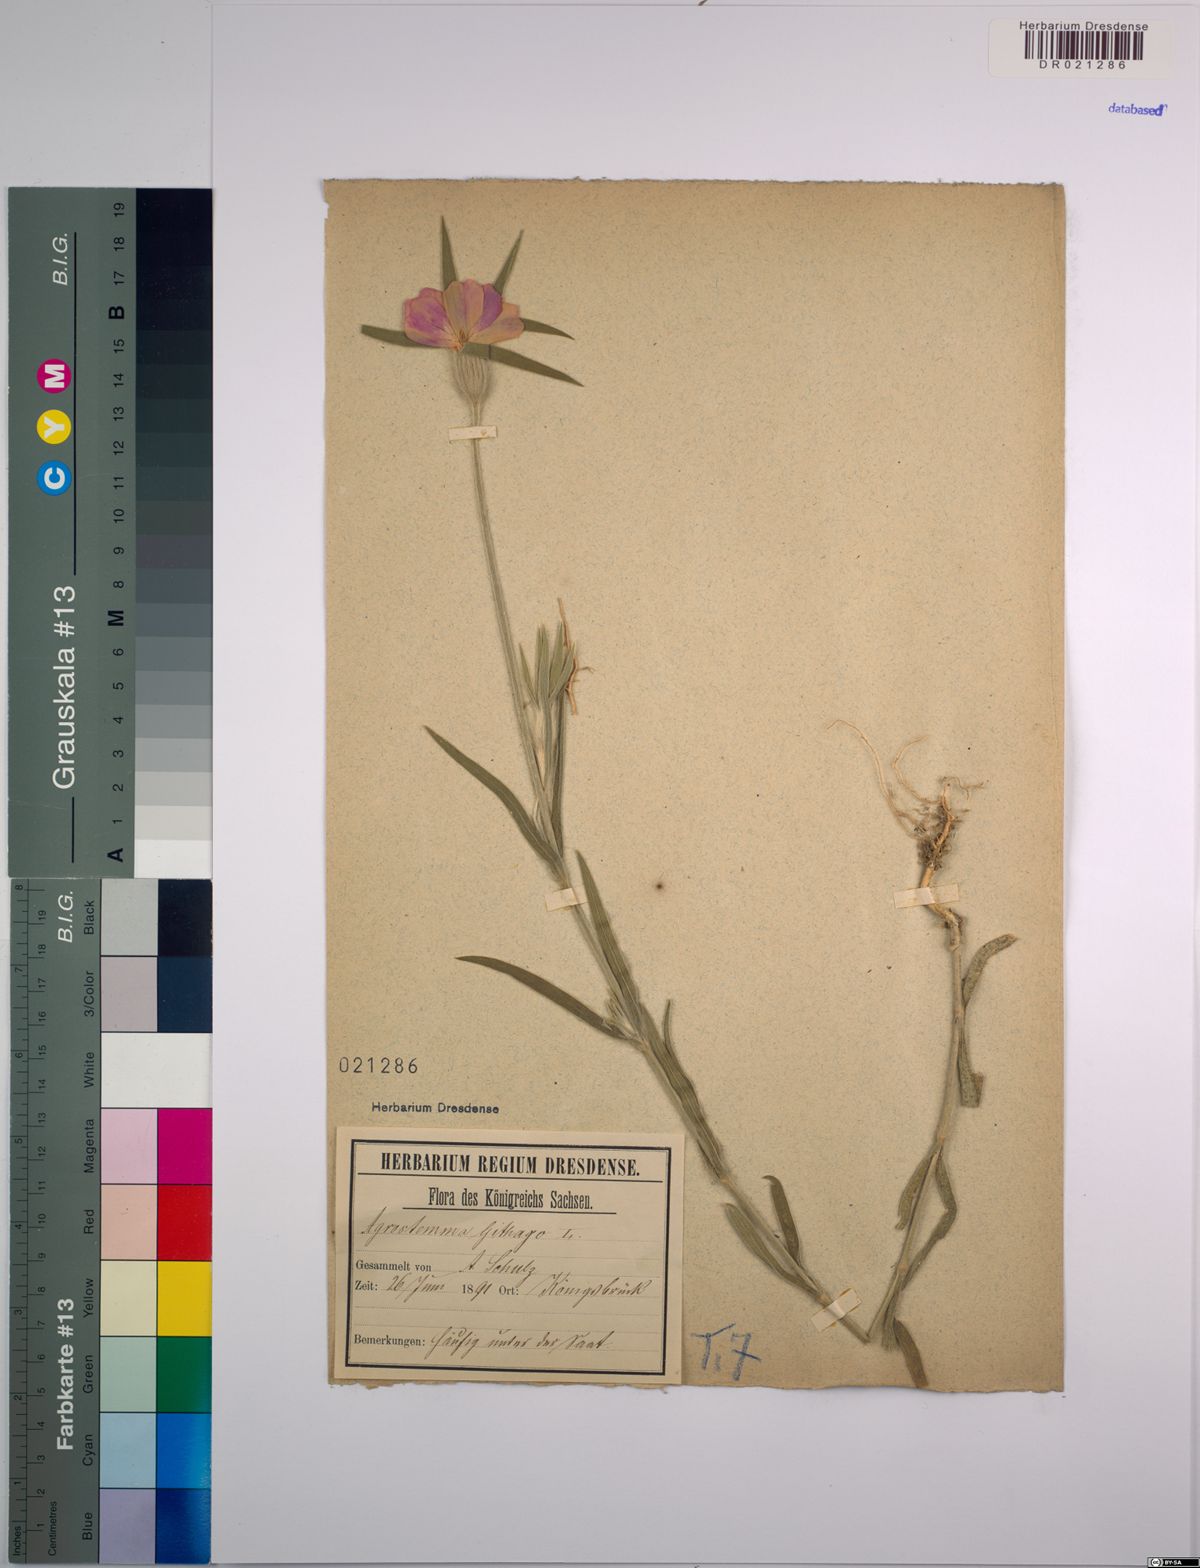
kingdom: Plantae
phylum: Tracheophyta
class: Magnoliopsida
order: Caryophyllales
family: Caryophyllaceae
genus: Agrostemma
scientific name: Agrostemma githago
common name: Common corncockle
